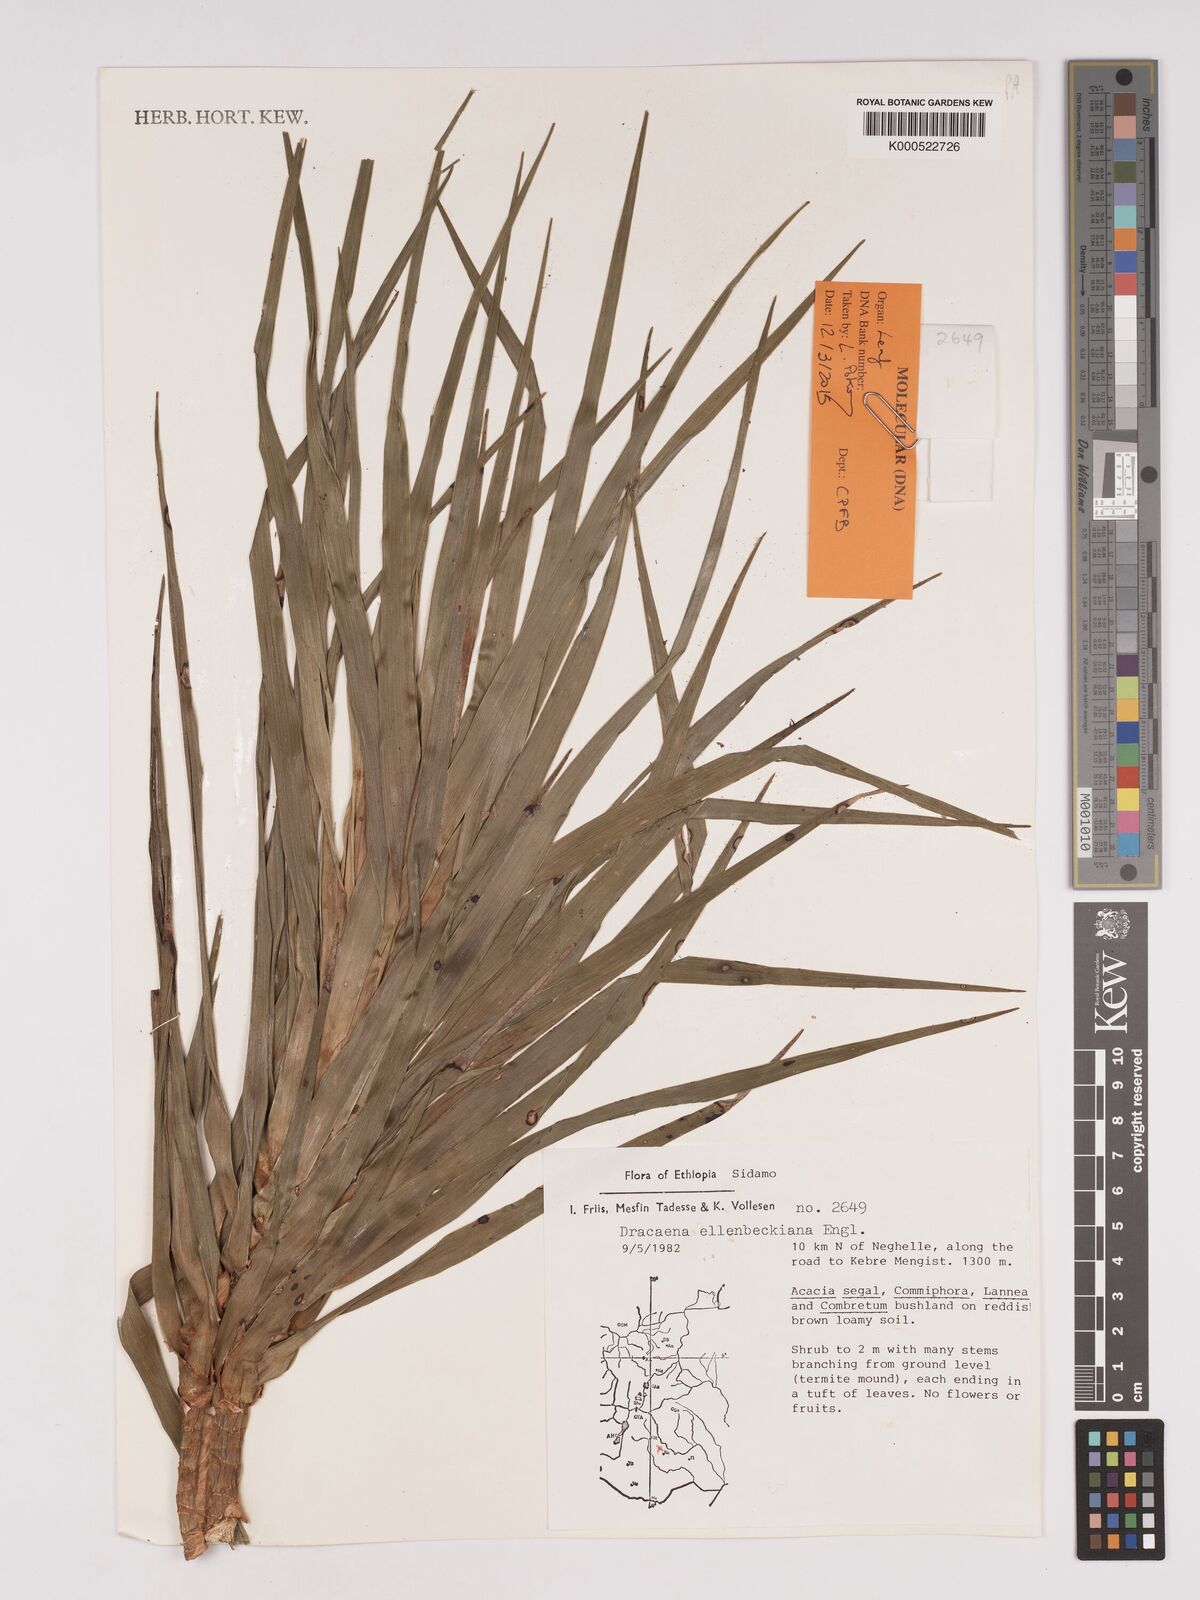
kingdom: Plantae
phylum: Tracheophyta
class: Liliopsida
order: Asparagales
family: Asparagaceae
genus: Dracaena
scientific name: Dracaena elliptica
